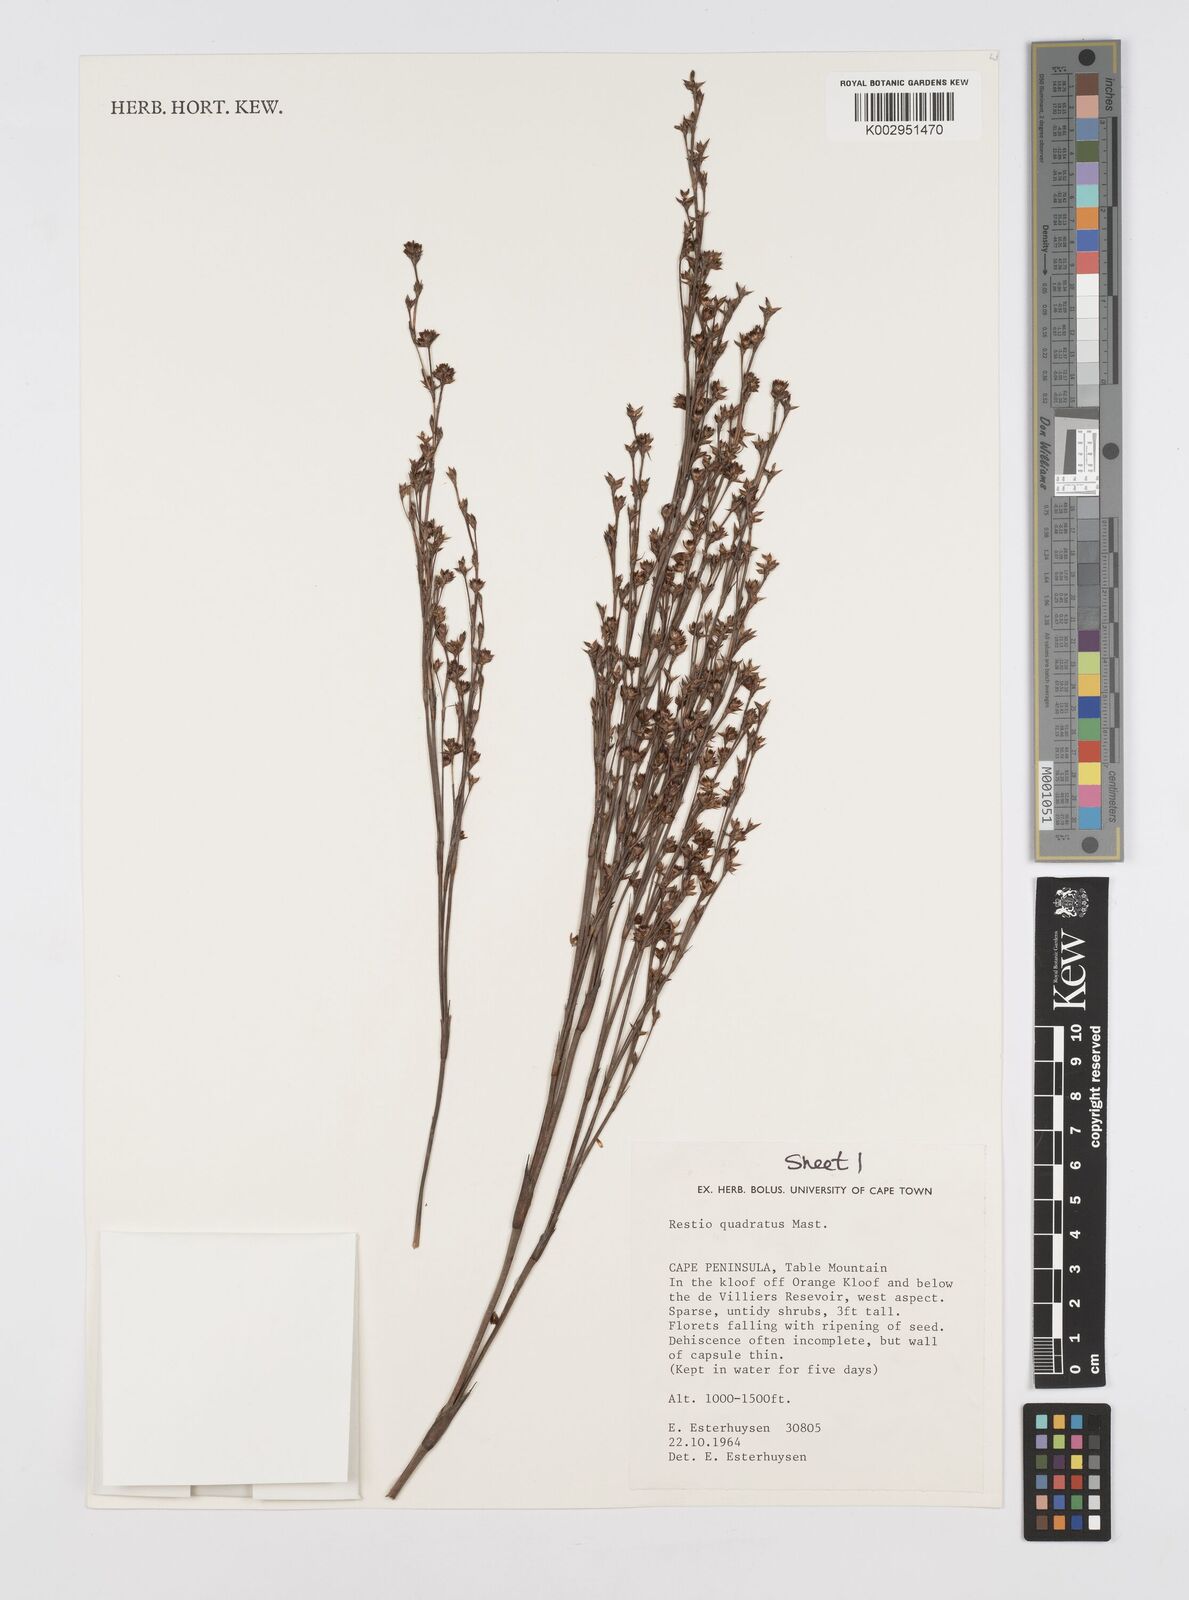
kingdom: Plantae
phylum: Tracheophyta
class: Liliopsida
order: Poales
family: Restionaceae
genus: Restio
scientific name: Restio quadratus
